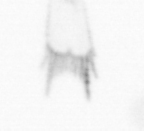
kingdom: Animalia
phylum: Arthropoda
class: Copepoda
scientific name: Copepoda
